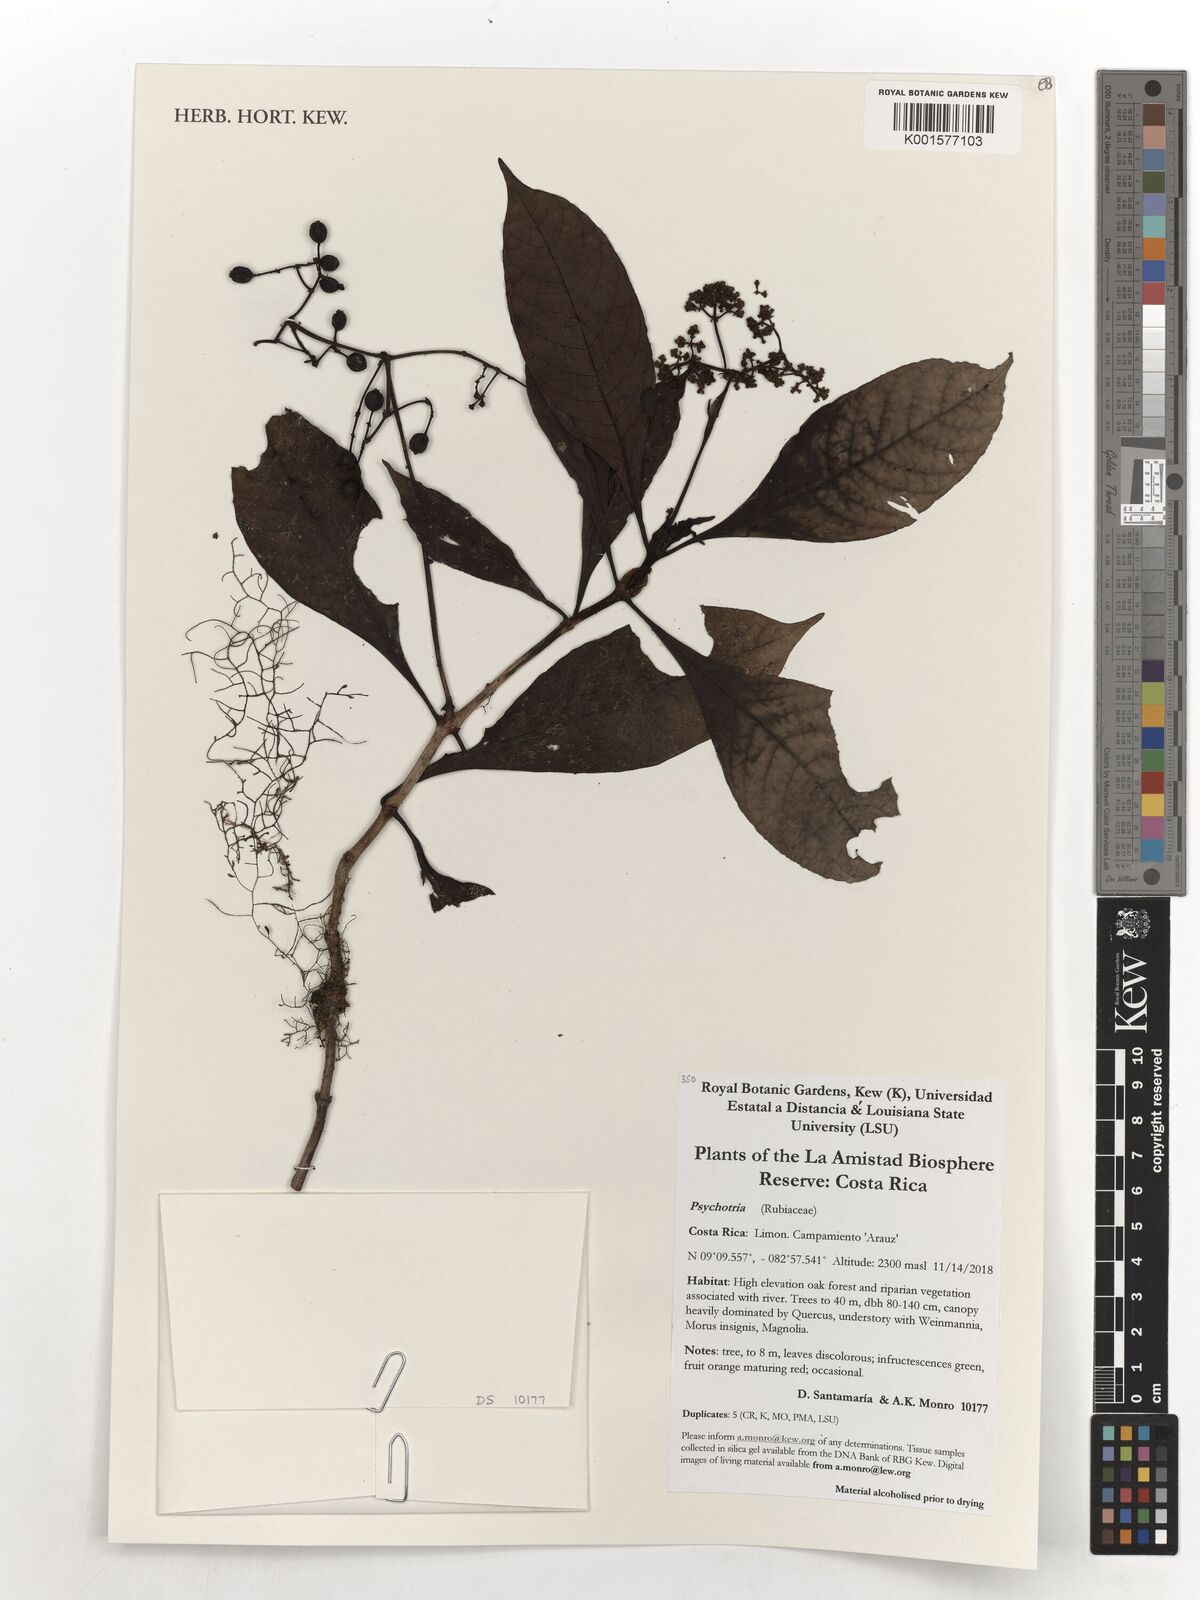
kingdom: Plantae
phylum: Tracheophyta
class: Magnoliopsida
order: Gentianales
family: Rubiaceae
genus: Psychotria
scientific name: Psychotria
